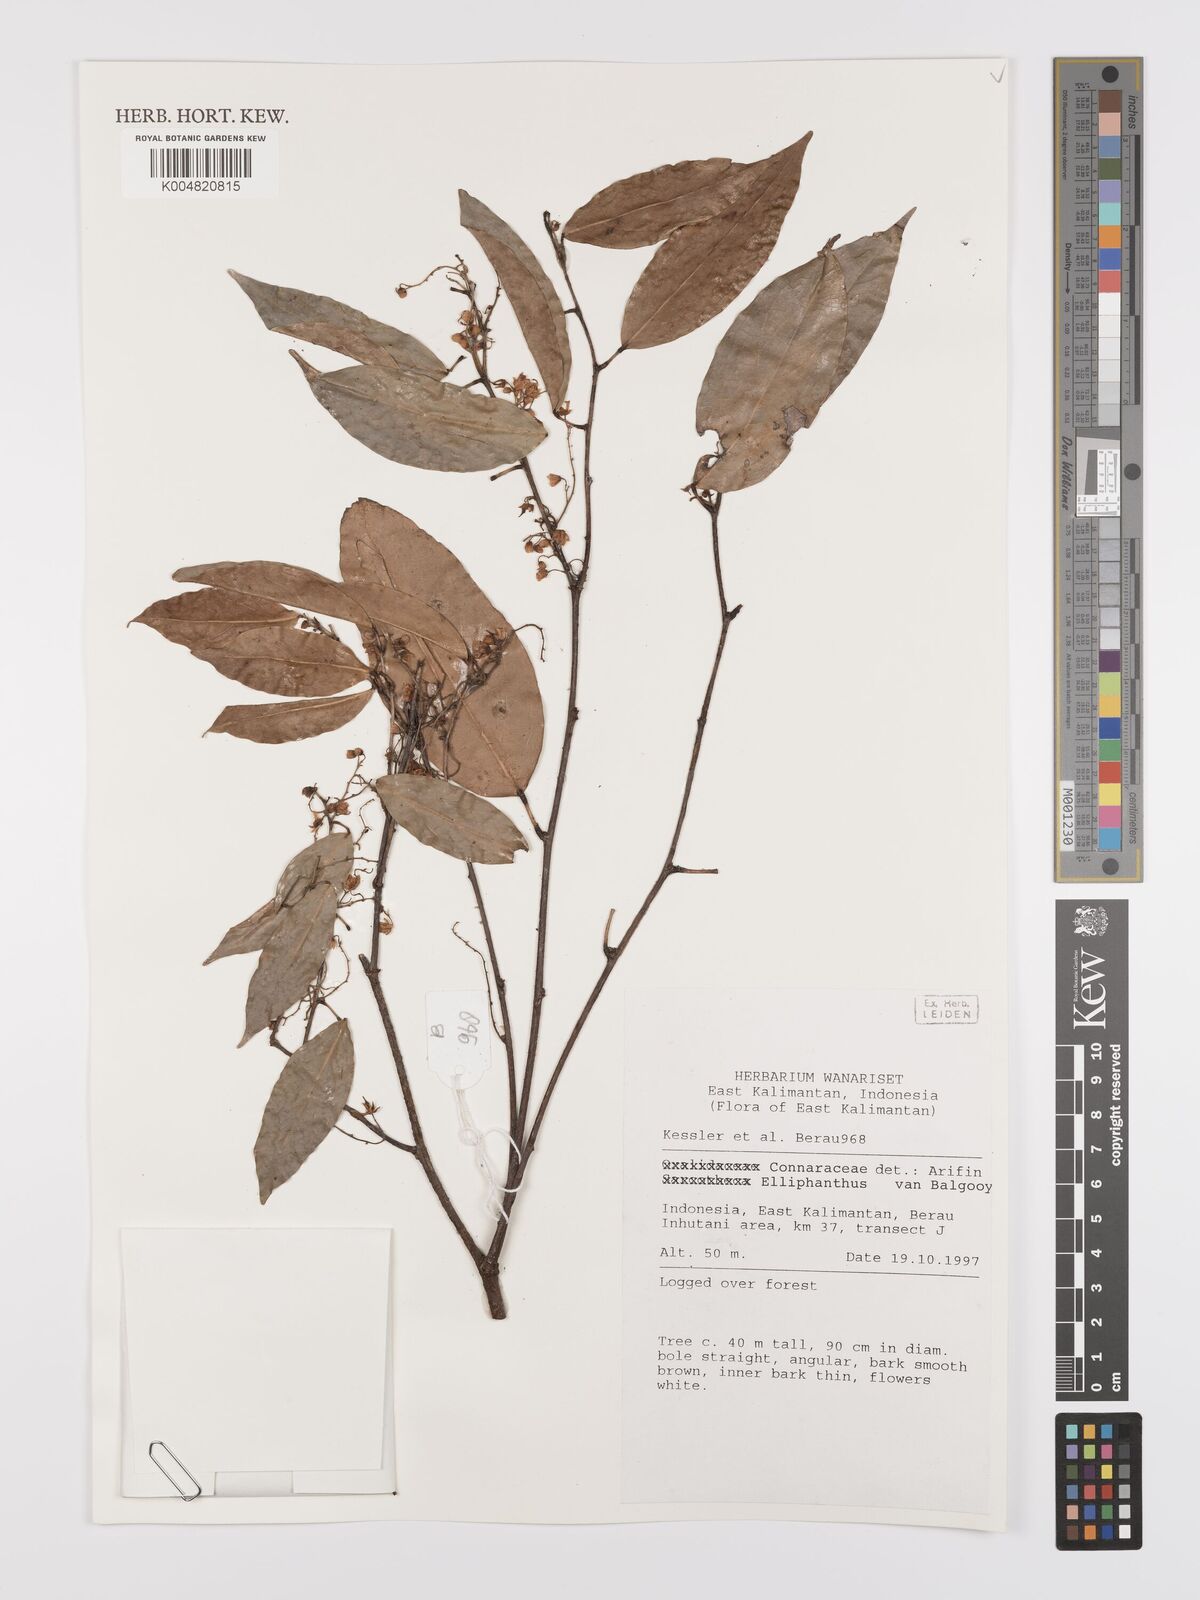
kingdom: Plantae
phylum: Tracheophyta
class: Magnoliopsida
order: Oxalidales
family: Connaraceae
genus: Ellipanthus
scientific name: Ellipanthus
